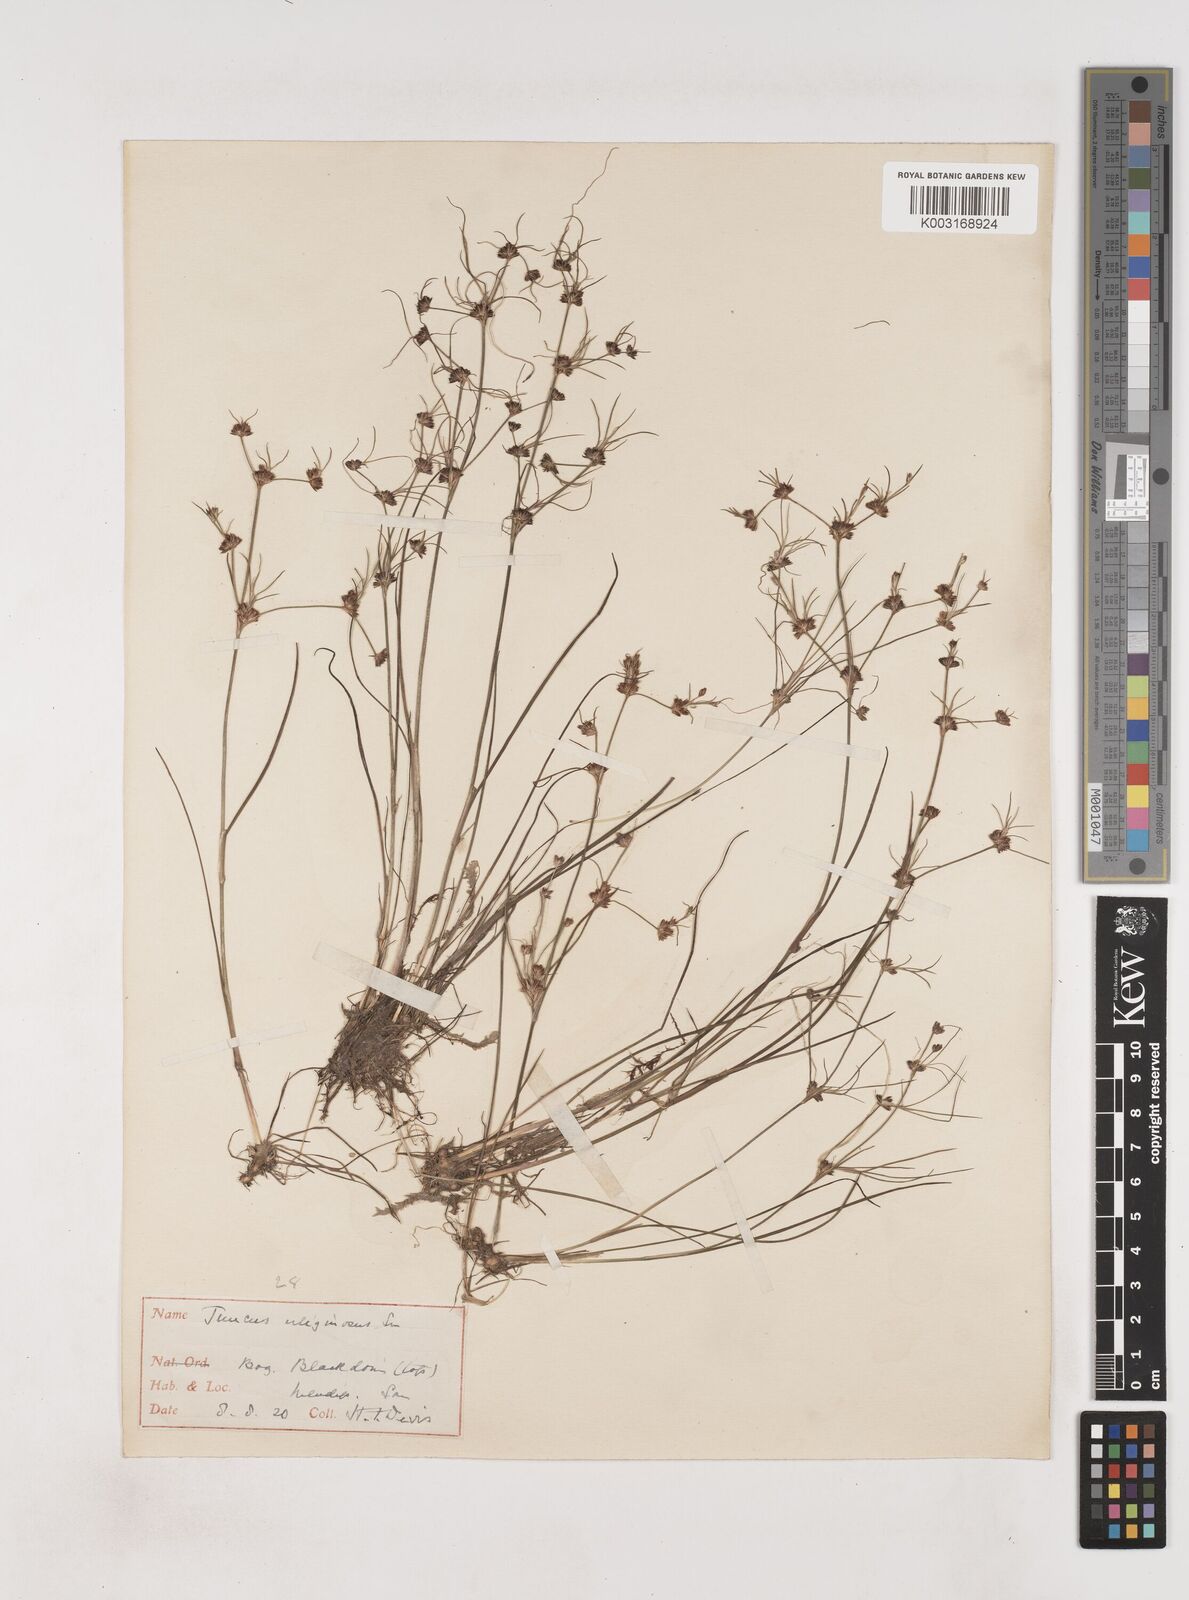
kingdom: Plantae
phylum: Tracheophyta
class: Liliopsida
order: Poales
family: Juncaceae
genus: Juncus
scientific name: Juncus bulbosus
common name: Bulbous rush
